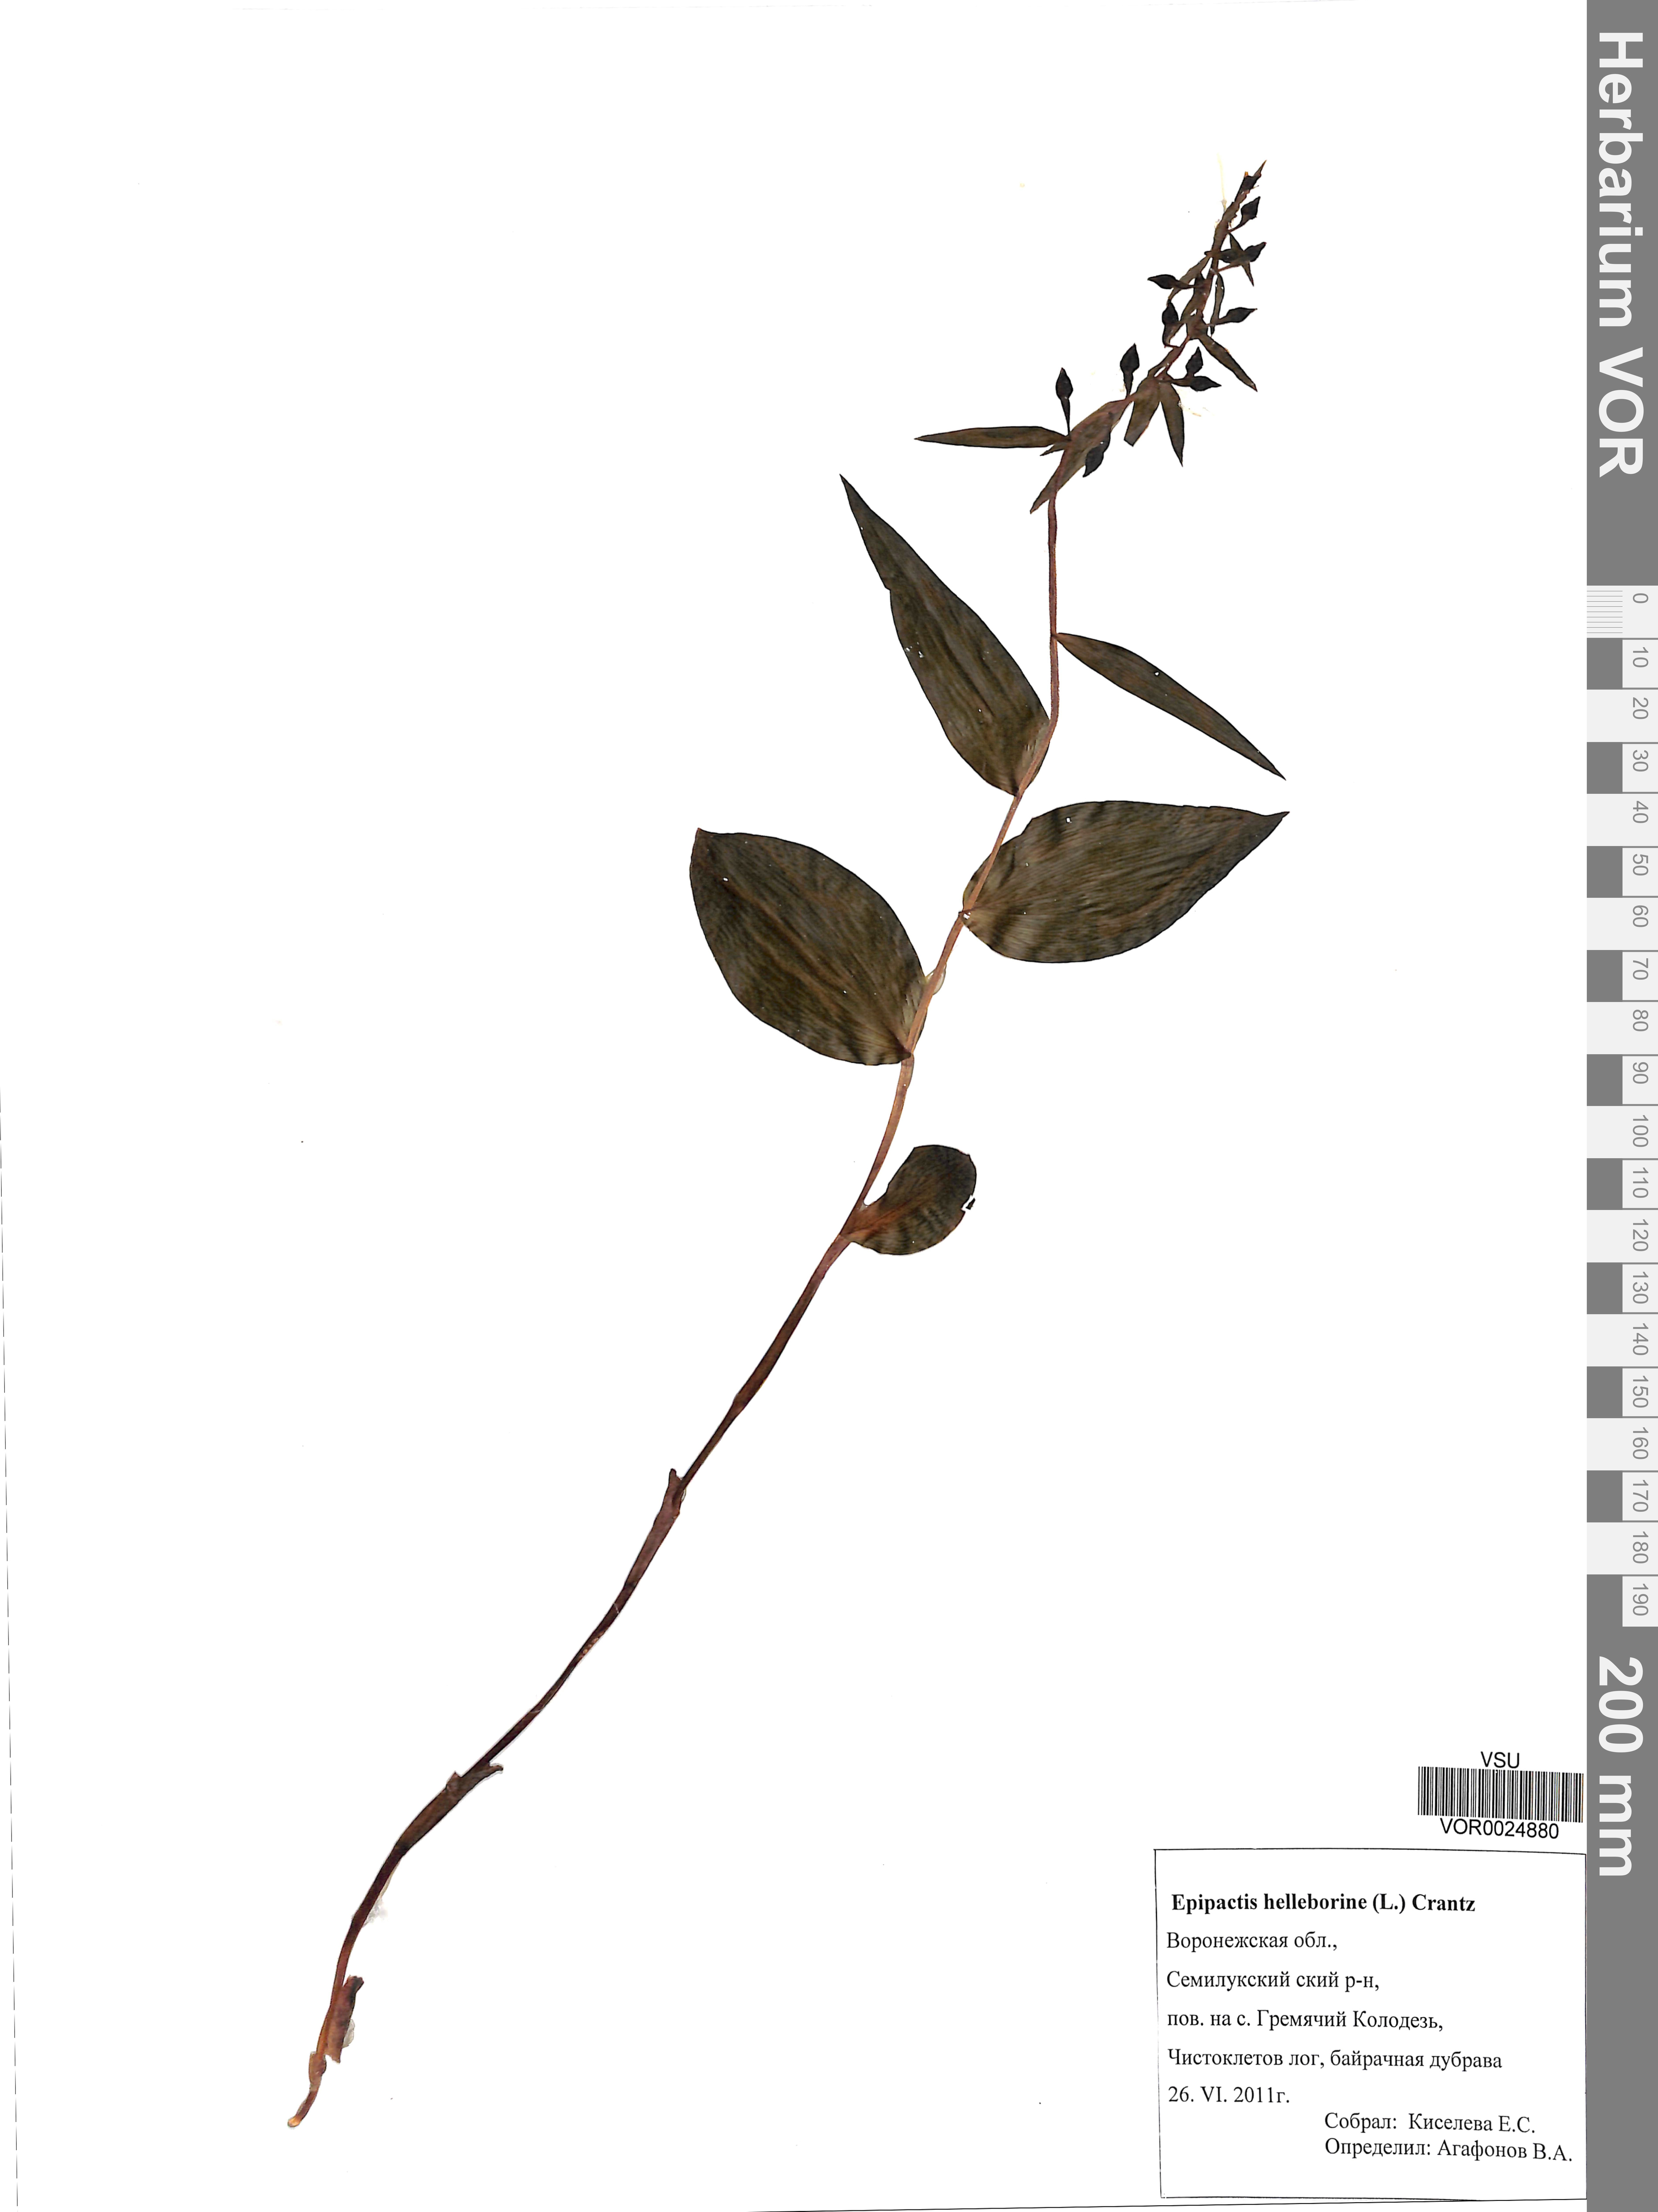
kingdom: Plantae
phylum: Tracheophyta
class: Liliopsida
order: Asparagales
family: Orchidaceae
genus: Epipactis
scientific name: Epipactis atrorubens
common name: Dark-red helleborine
